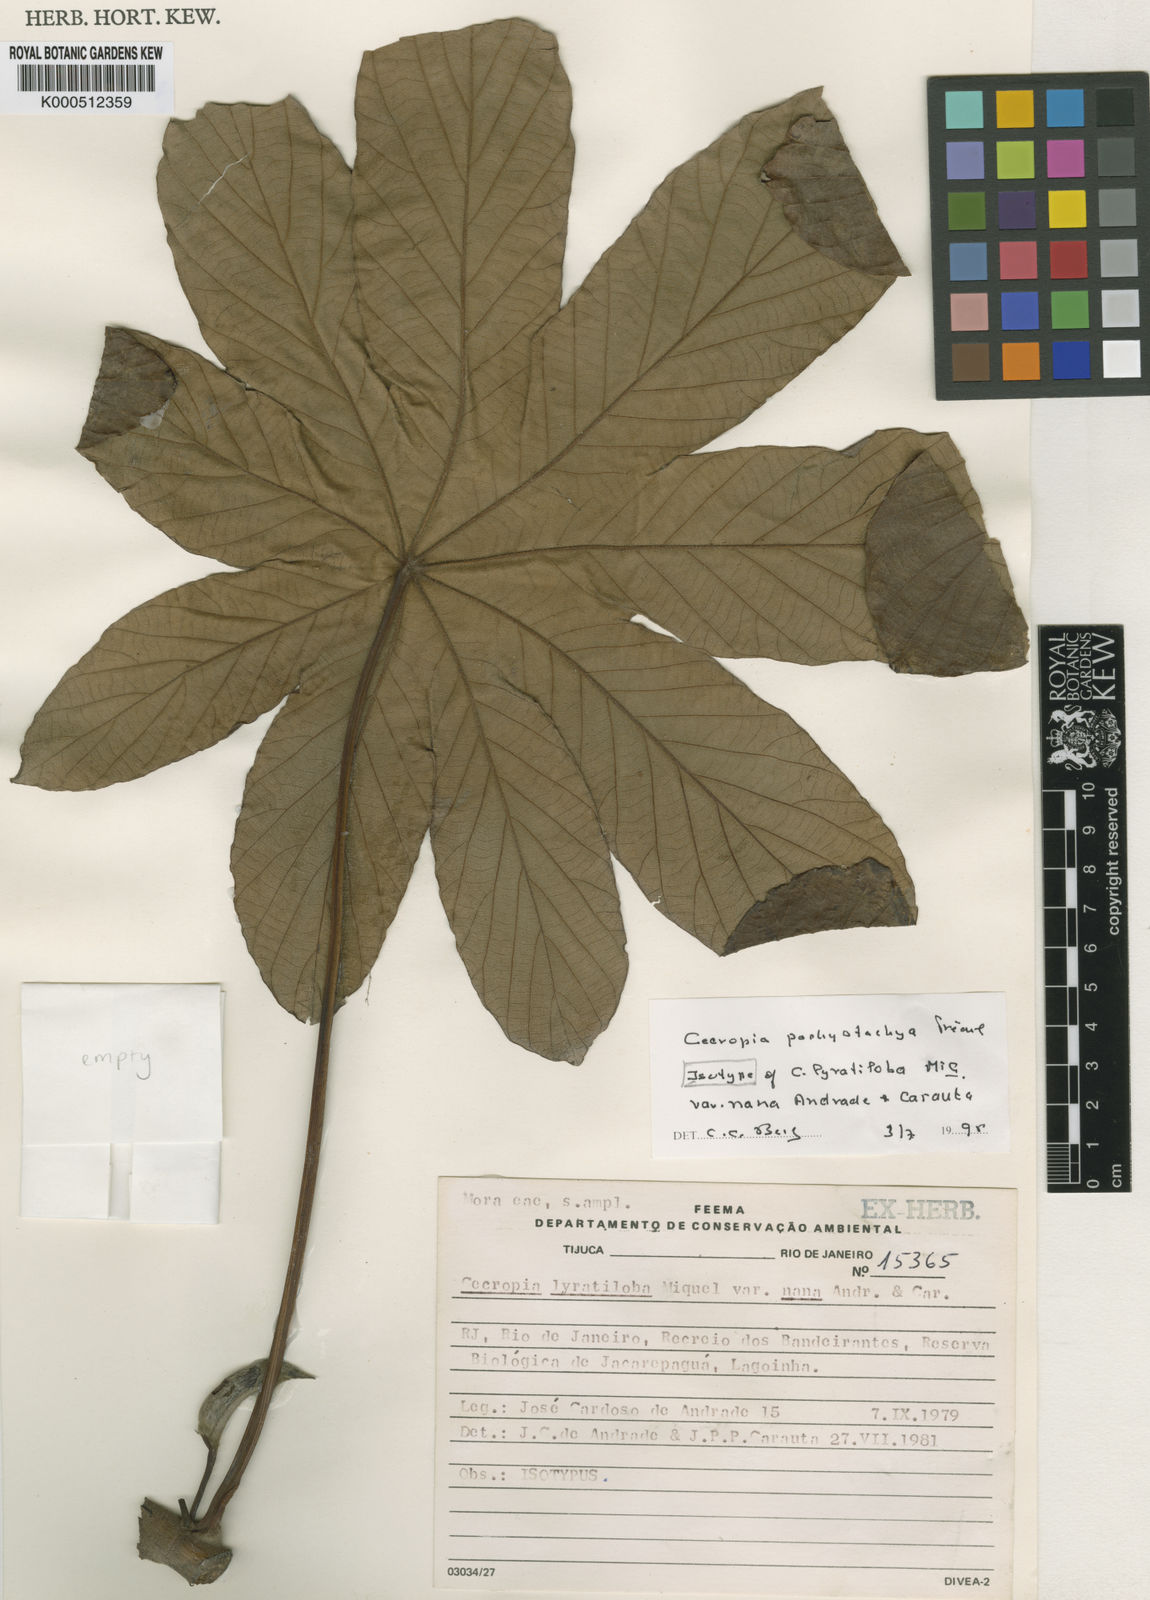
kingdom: Plantae
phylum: Tracheophyta
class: Magnoliopsida
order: Rosales
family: Urticaceae
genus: Cecropia
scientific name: Cecropia
